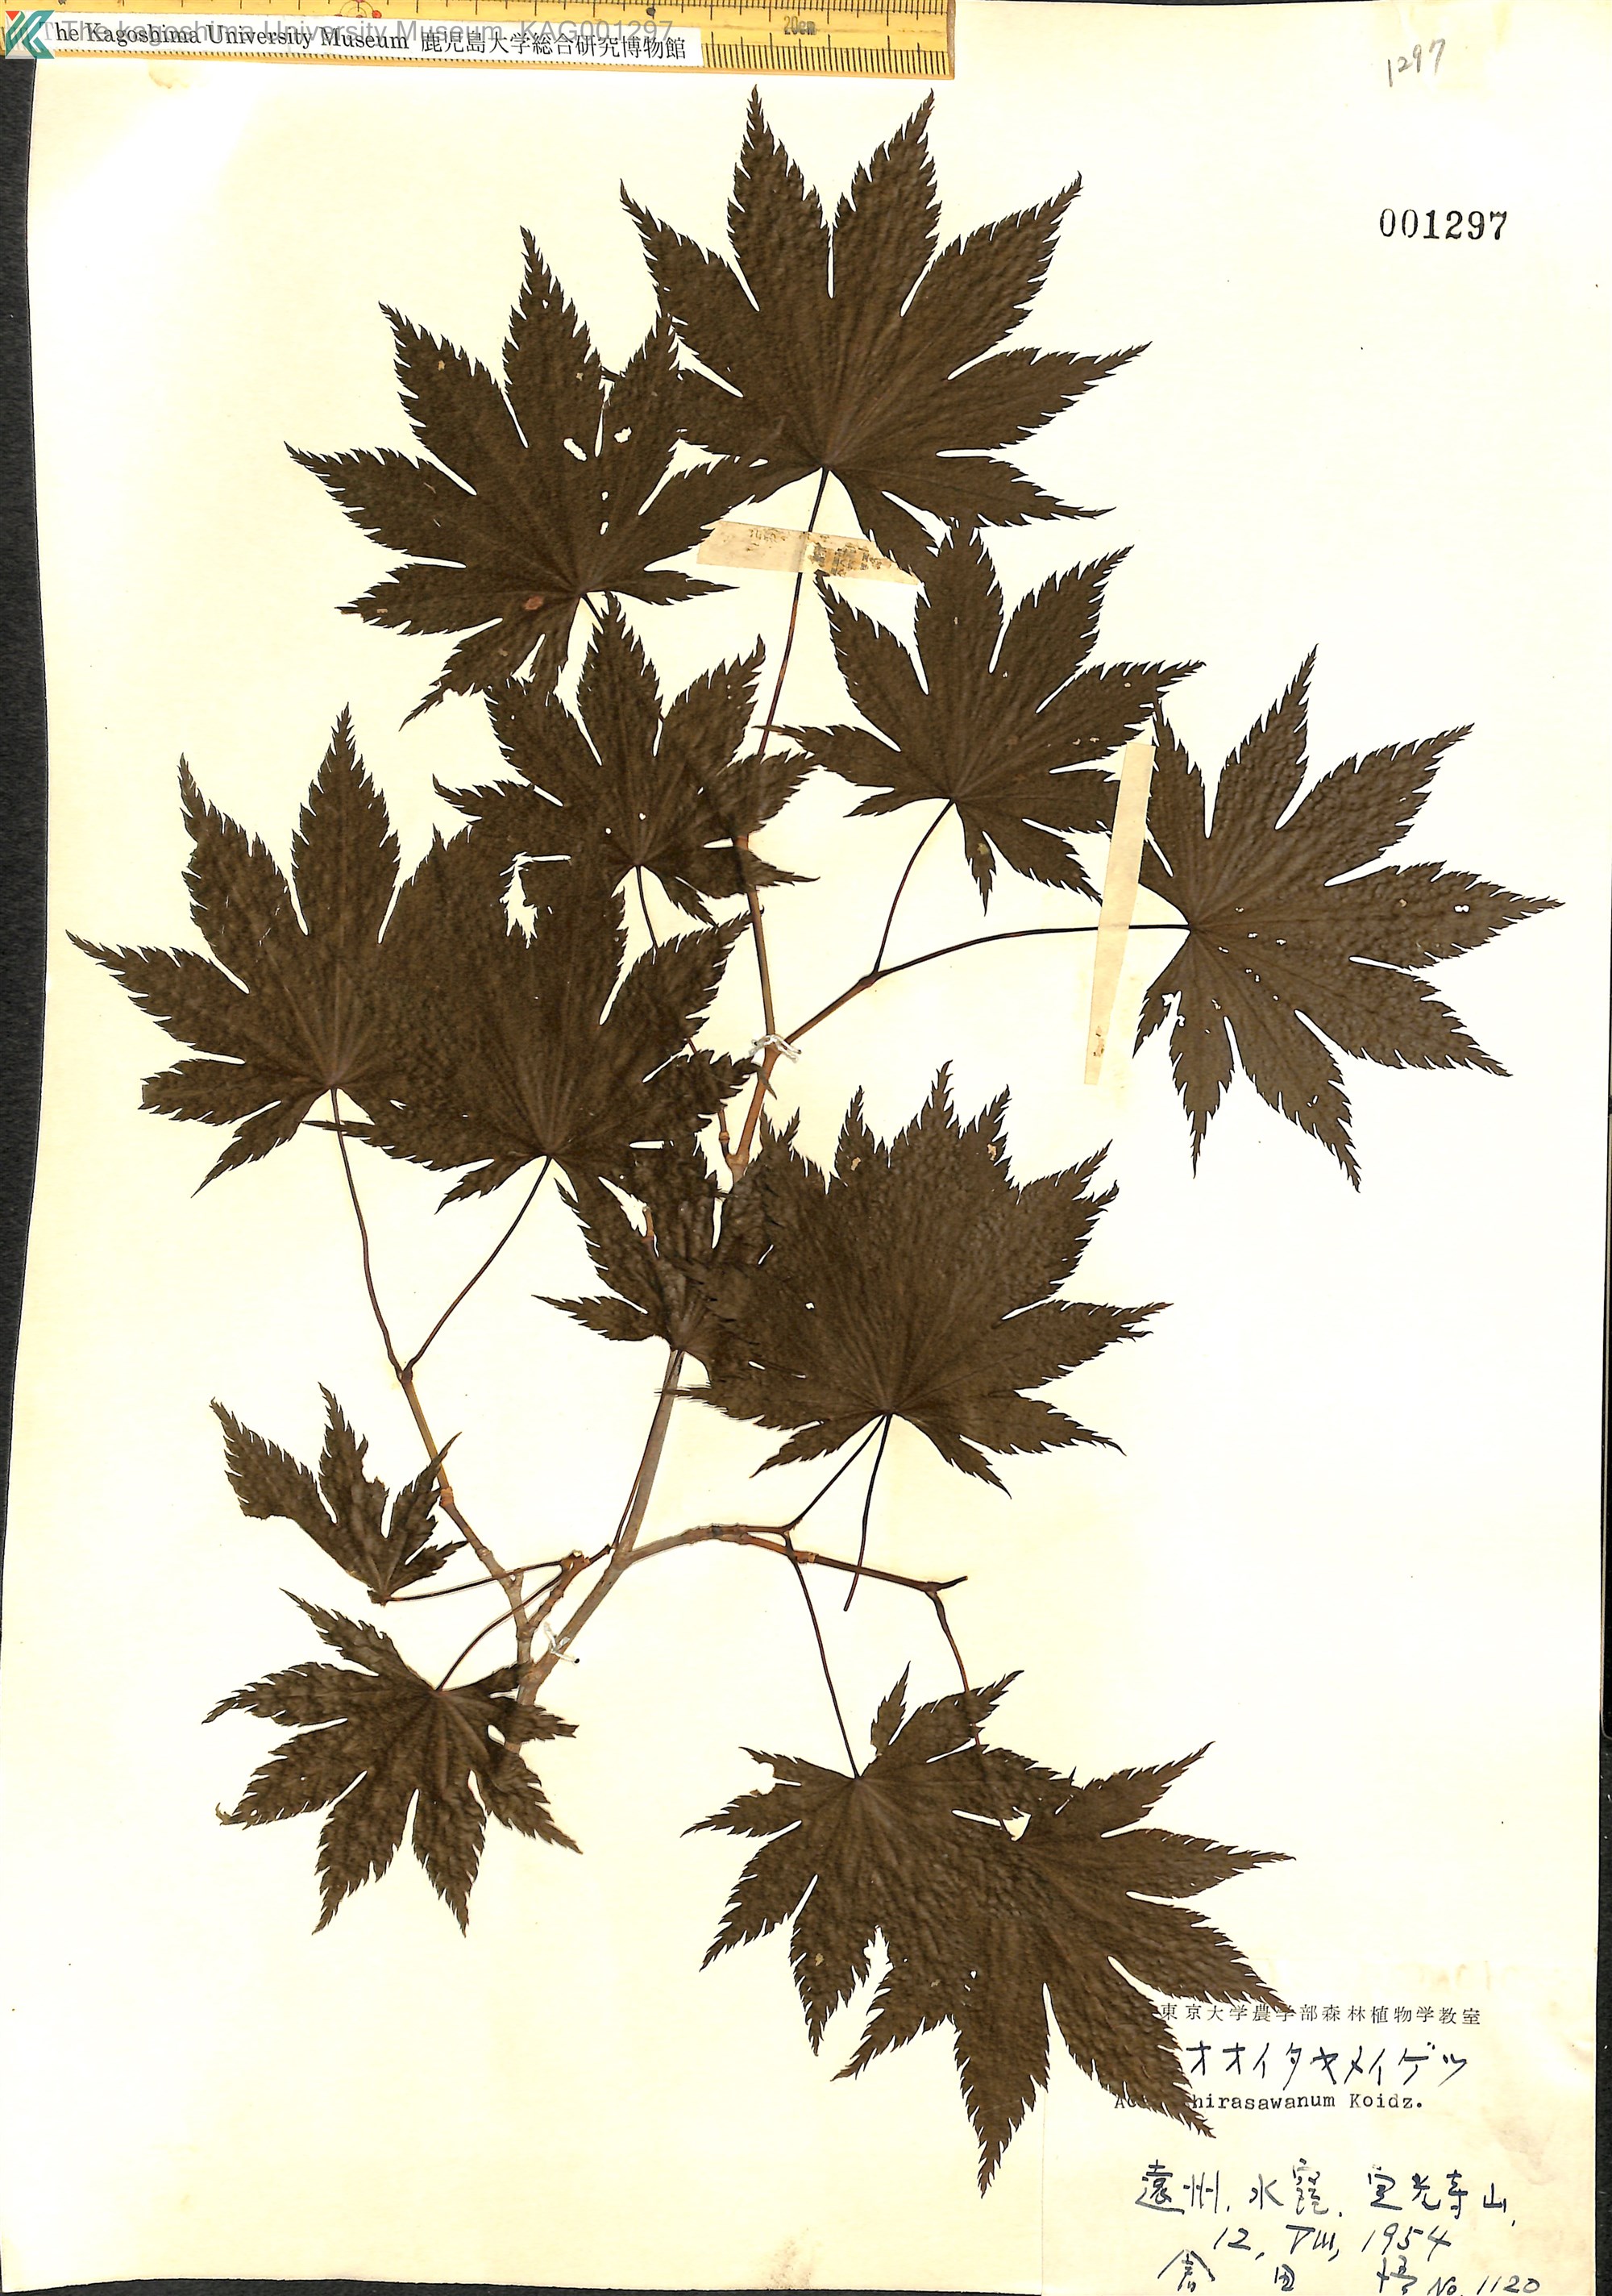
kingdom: Plantae
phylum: Tracheophyta
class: Magnoliopsida
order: Sapindales
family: Sapindaceae
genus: Acer
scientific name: Acer shirasawanum
